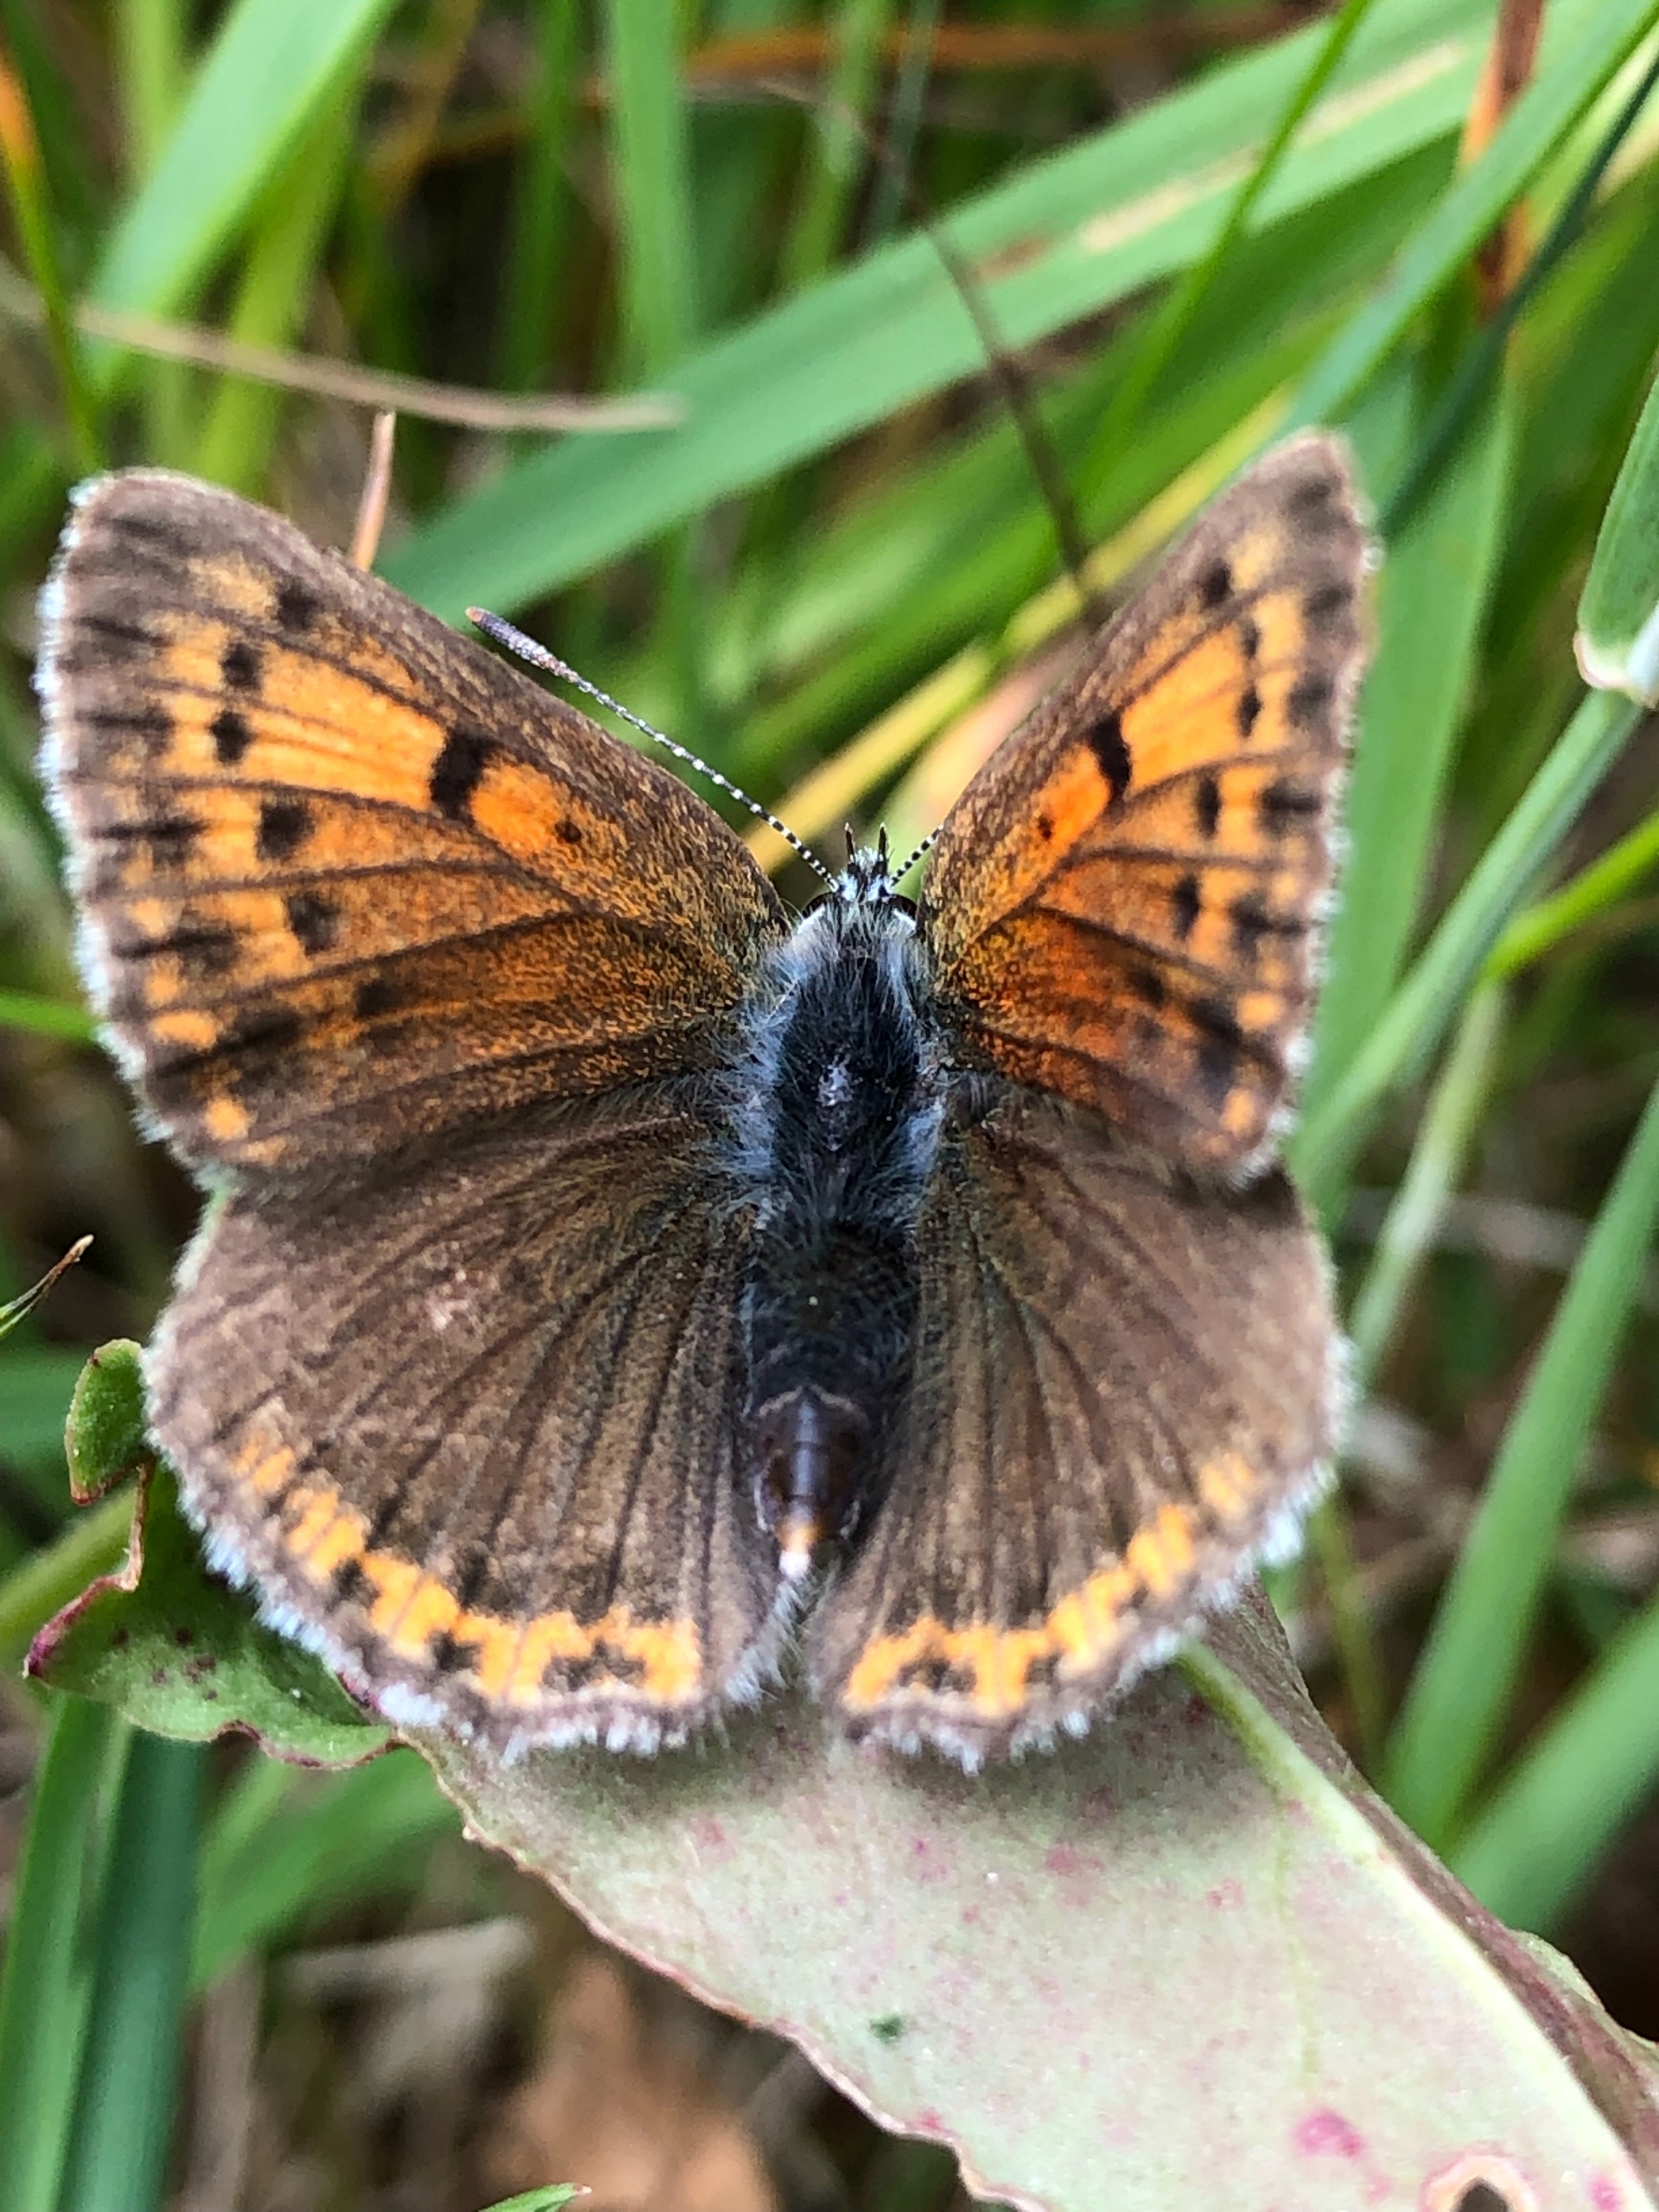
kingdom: Animalia
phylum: Arthropoda
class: Insecta
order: Lepidoptera
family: Lycaenidae
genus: Palaeochrysophanus
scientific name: Palaeochrysophanus hippothoe
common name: Violetrandet ildfugl
